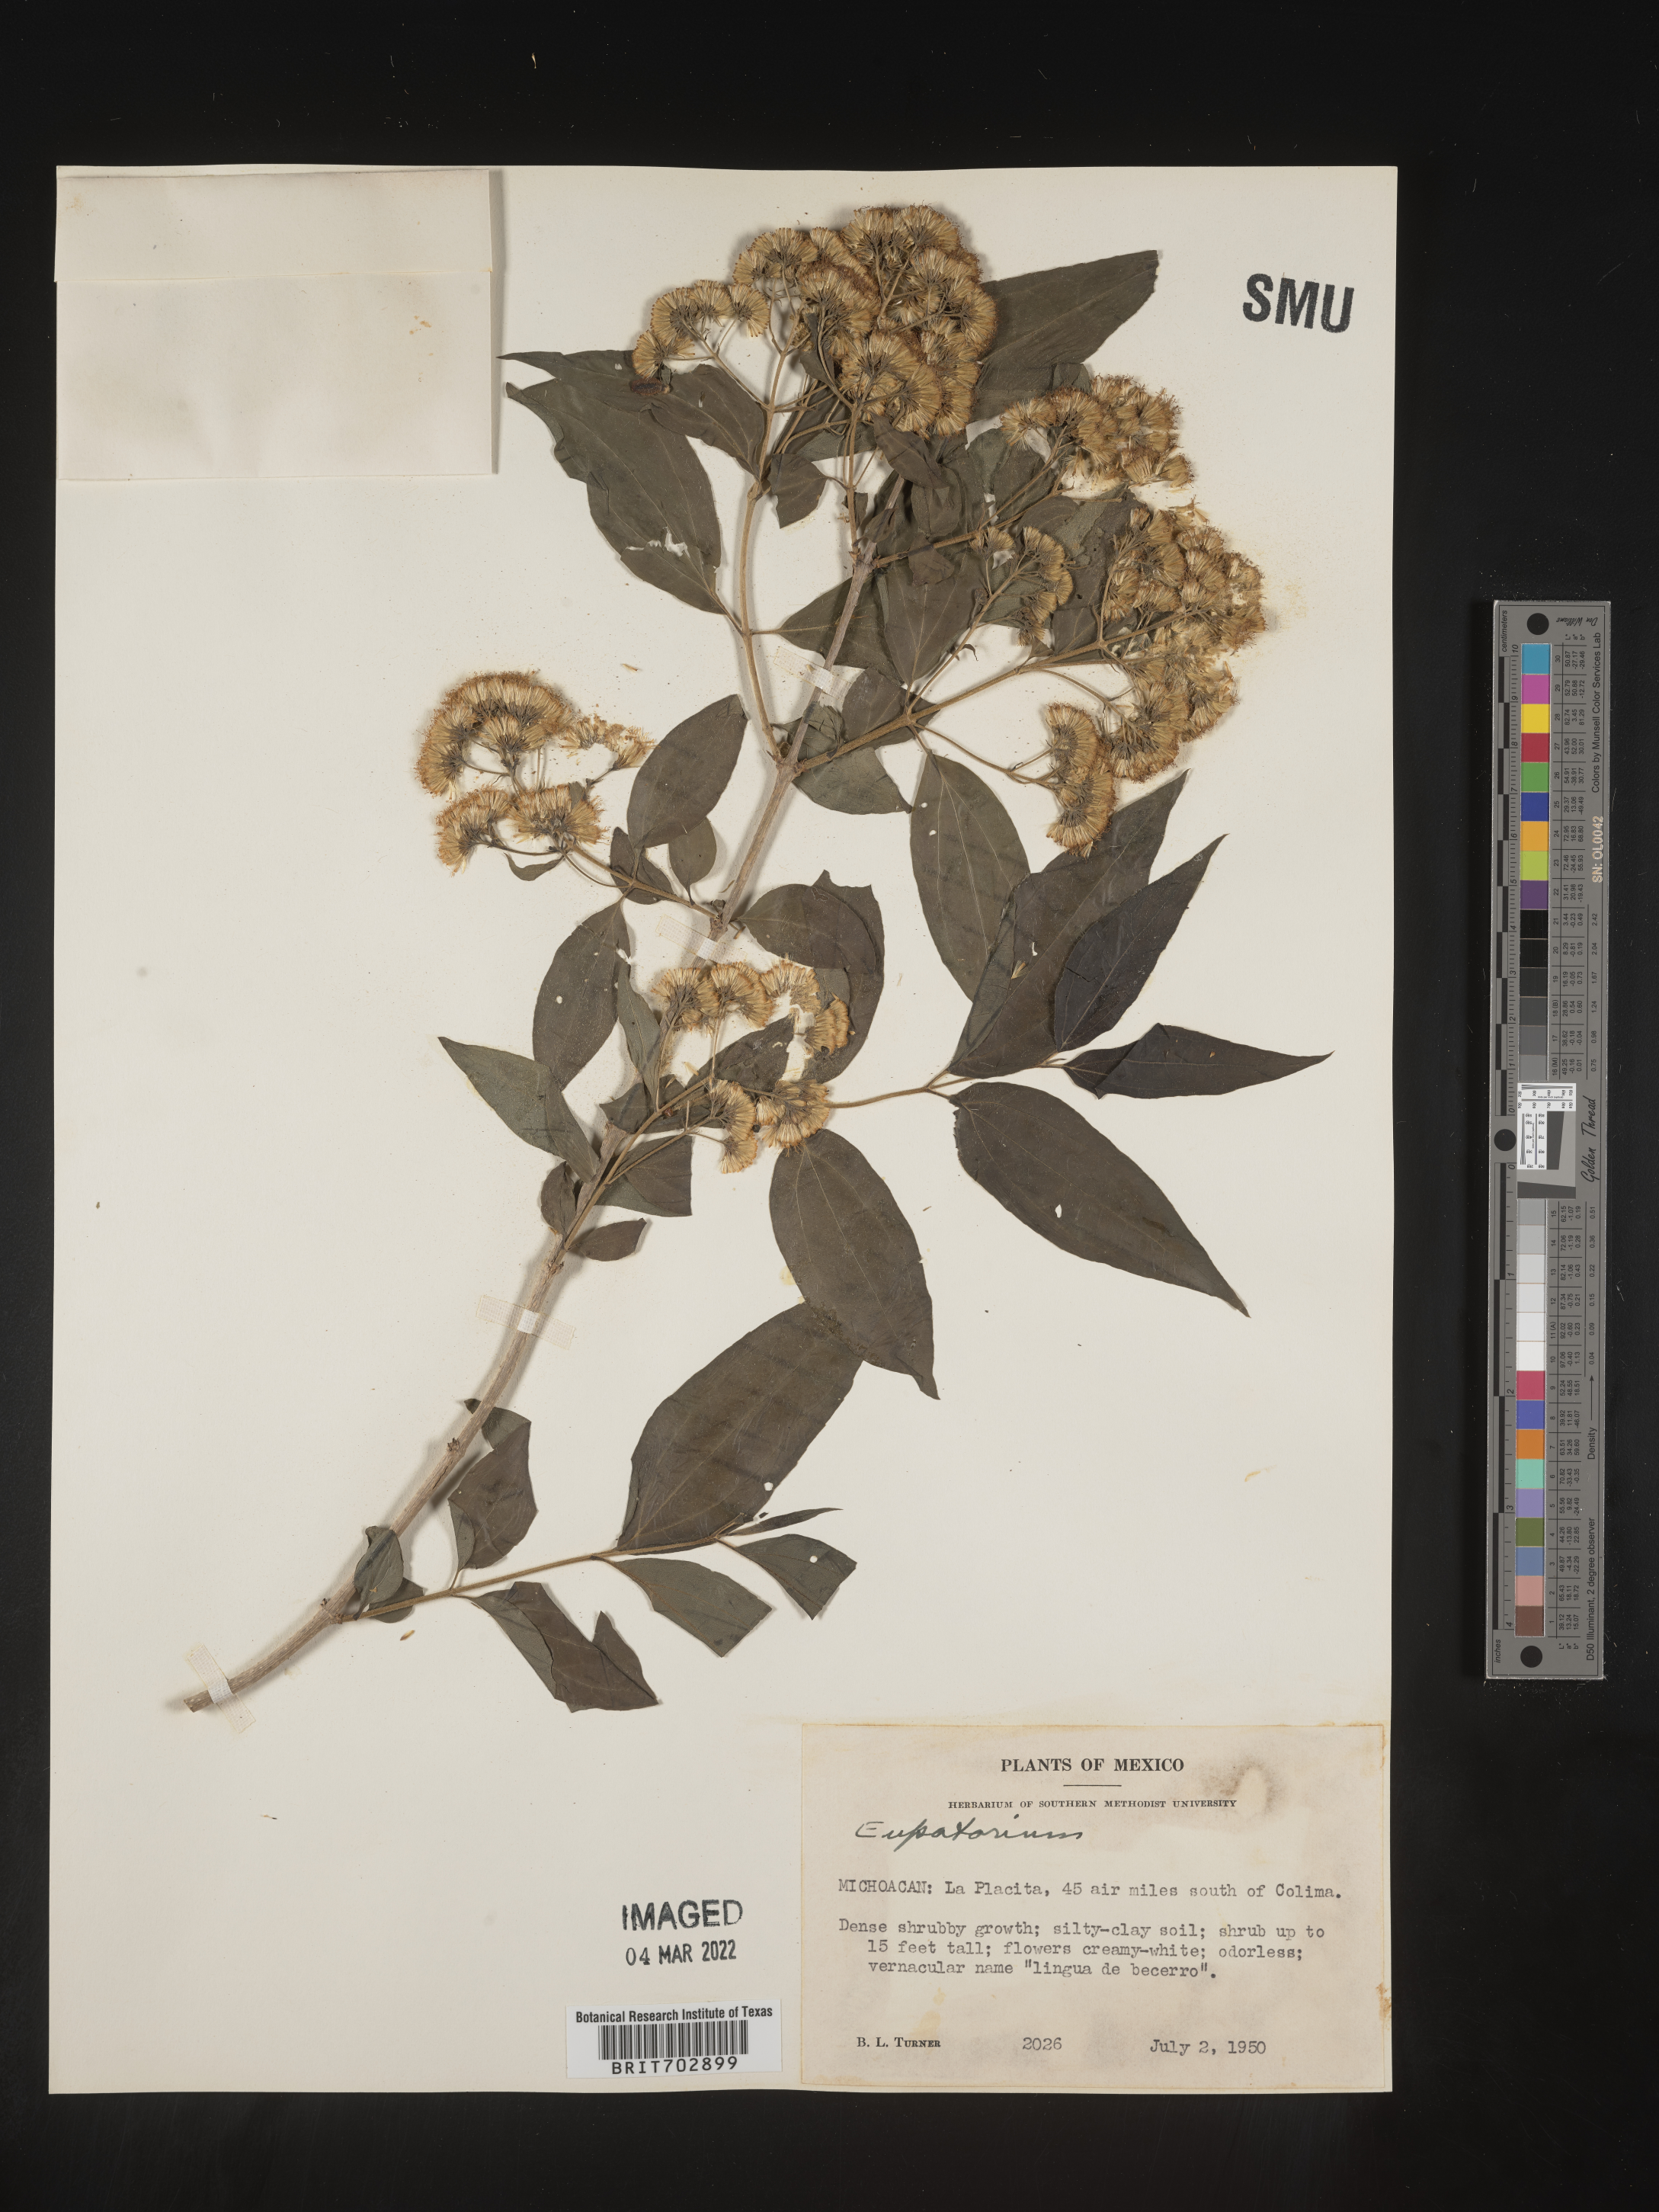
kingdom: Plantae
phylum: Tracheophyta
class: Magnoliopsida
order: Asterales
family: Asteraceae
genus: Eupatorium
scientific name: Eupatorium
